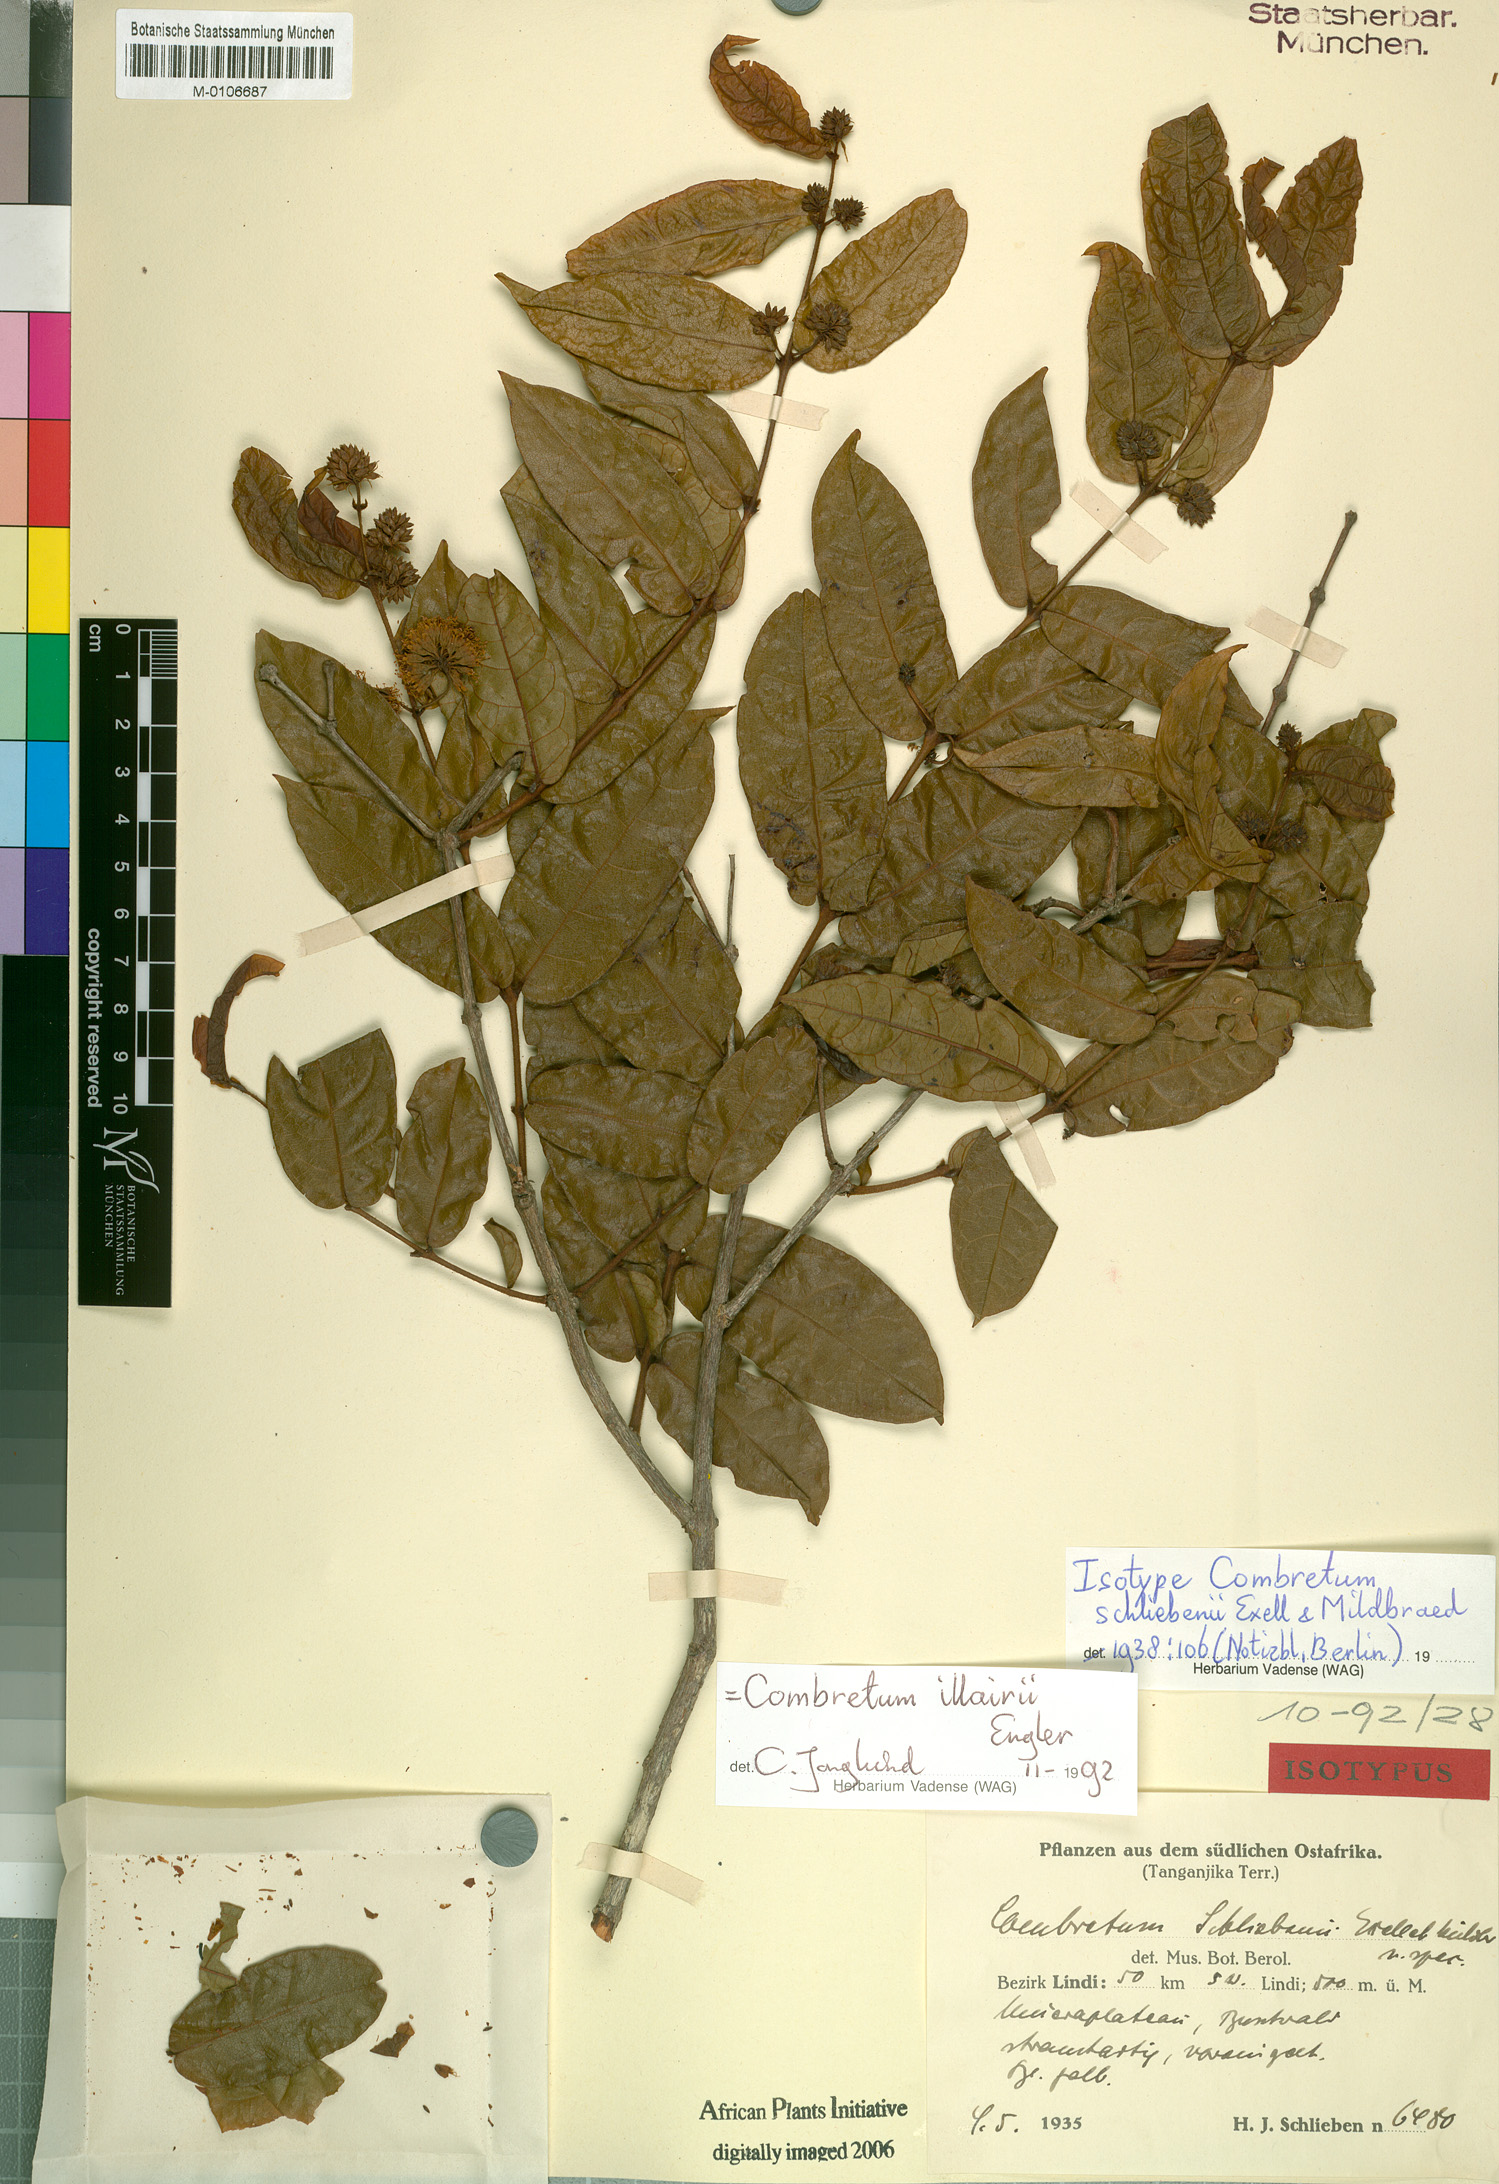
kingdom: Plantae
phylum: Tracheophyta
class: Magnoliopsida
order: Myrtales
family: Combretaceae
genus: Combretum
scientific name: Combretum iliairii
